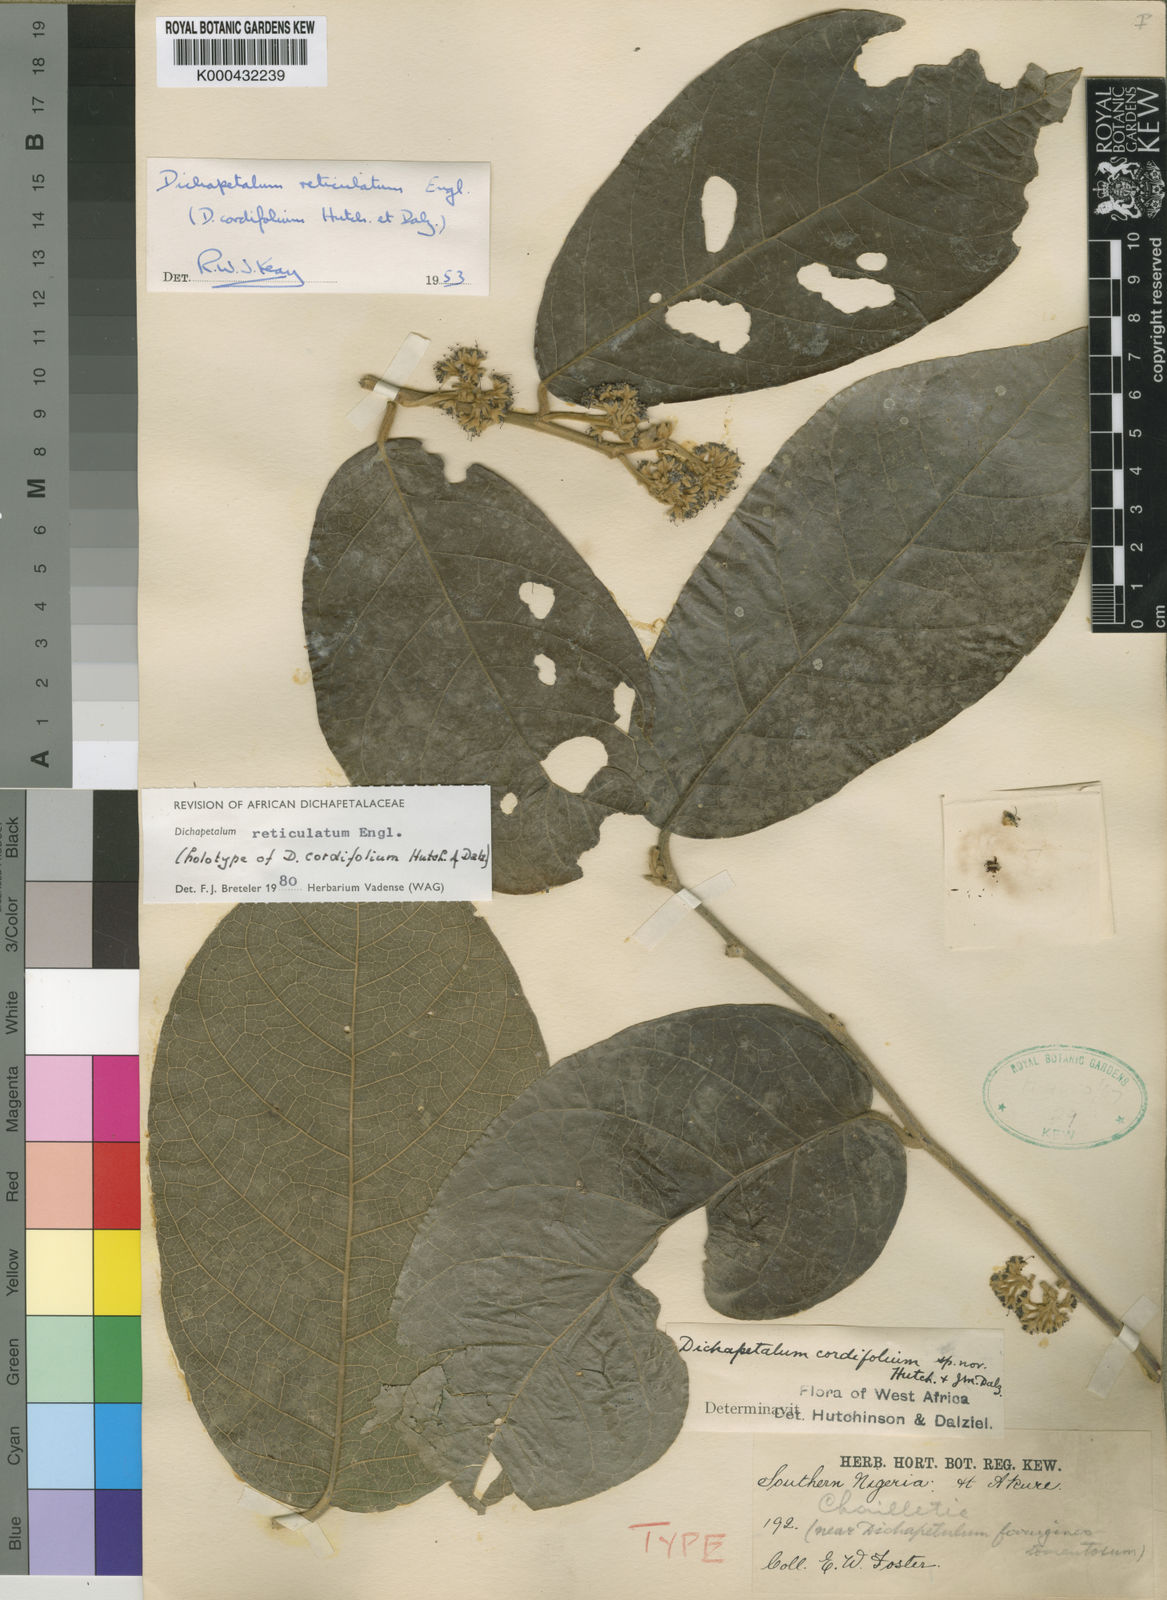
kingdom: Plantae
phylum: Tracheophyta
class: Magnoliopsida
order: Malpighiales
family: Dichapetalaceae
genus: Dichapetalum
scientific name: Dichapetalum reticulatum
